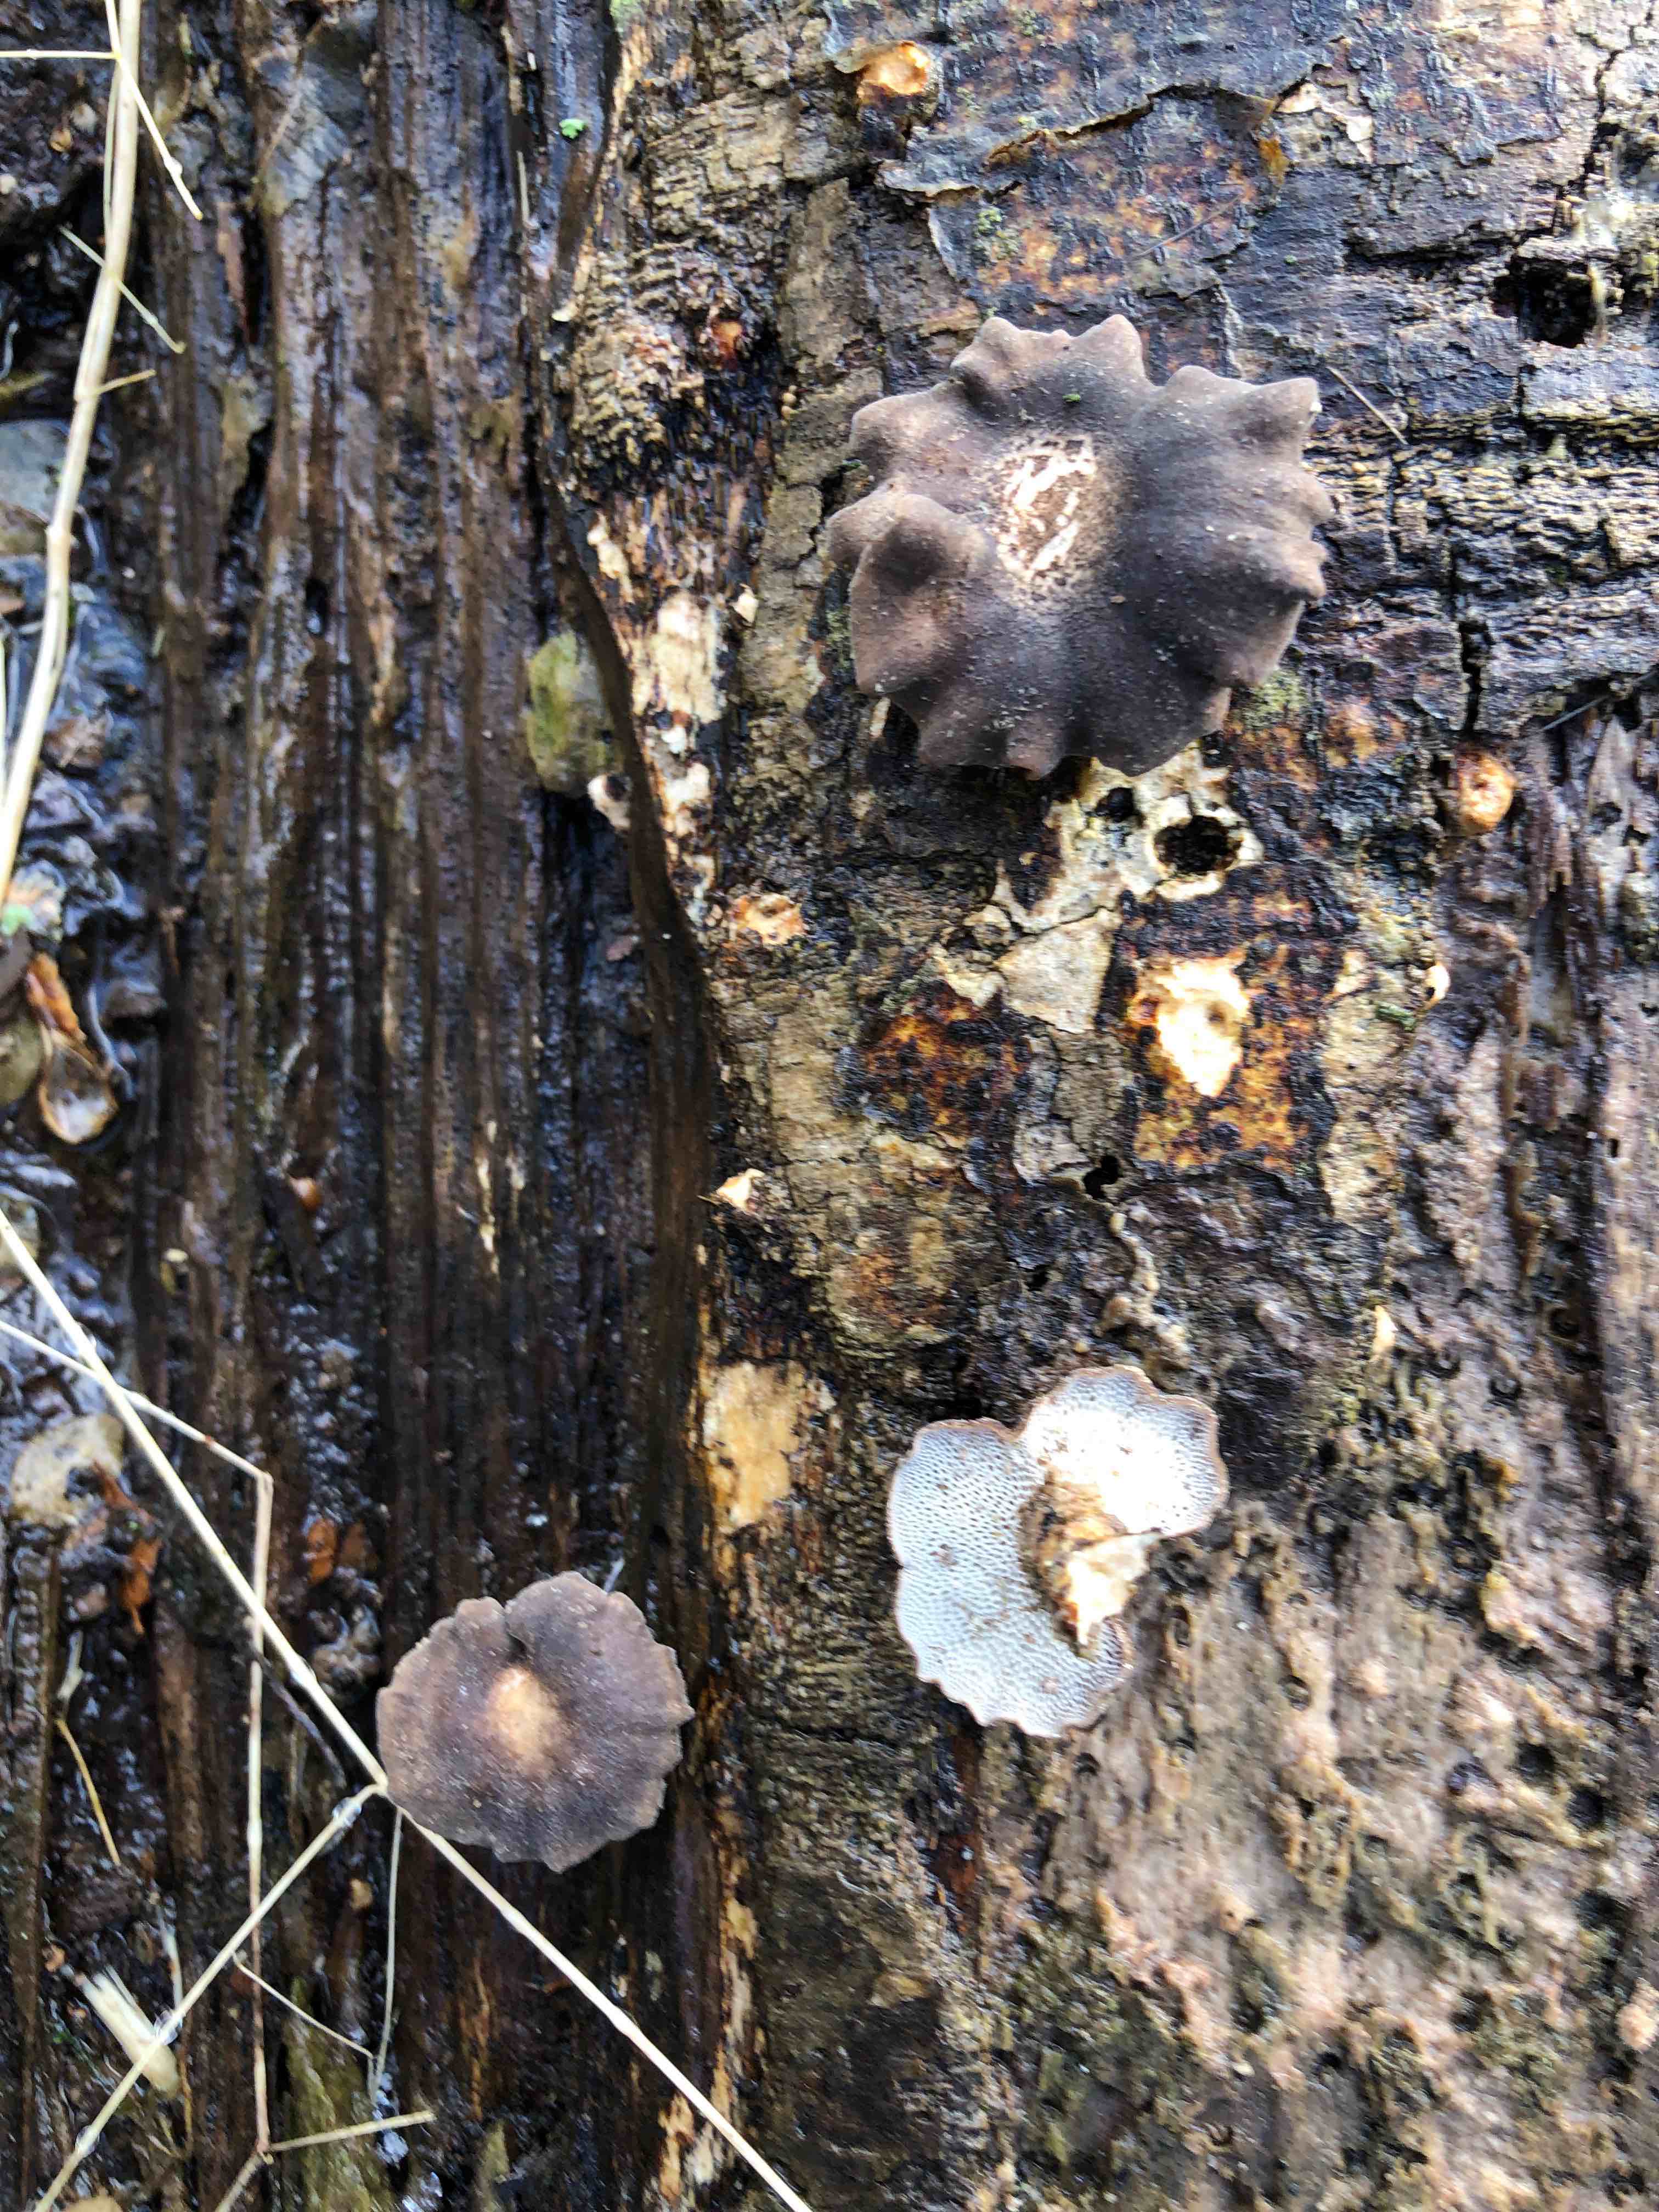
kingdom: Fungi
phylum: Basidiomycota
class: Agaricomycetes
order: Polyporales
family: Polyporaceae
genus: Lentinus
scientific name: Lentinus brumalis
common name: vinter-stilkporesvamp
